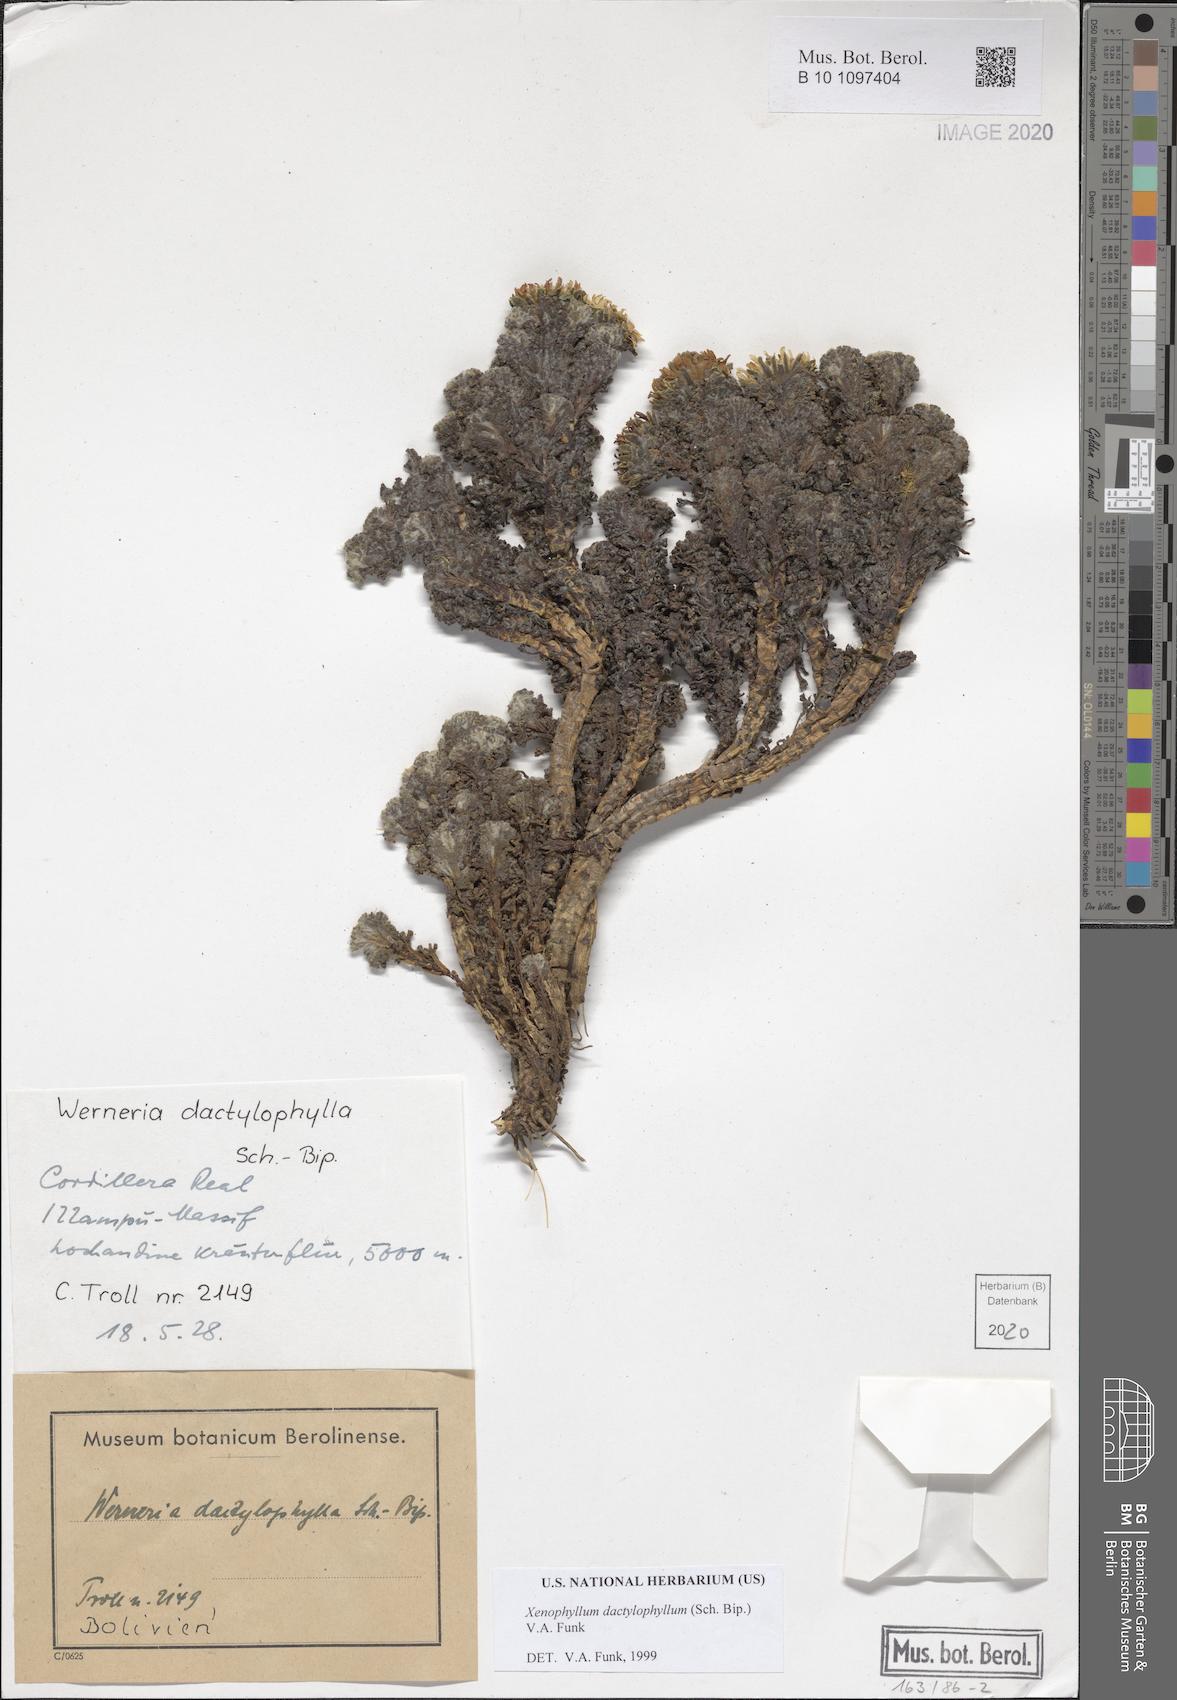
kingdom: Plantae
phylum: Tracheophyta
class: Magnoliopsida
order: Asterales
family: Asteraceae
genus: Werneria
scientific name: Werneria dactylophylla
